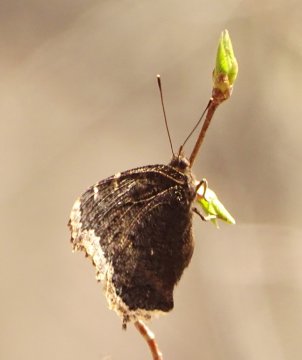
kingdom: Animalia
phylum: Arthropoda
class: Insecta
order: Lepidoptera
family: Nymphalidae
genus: Nymphalis
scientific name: Nymphalis antiopa
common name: Mourning Cloak
